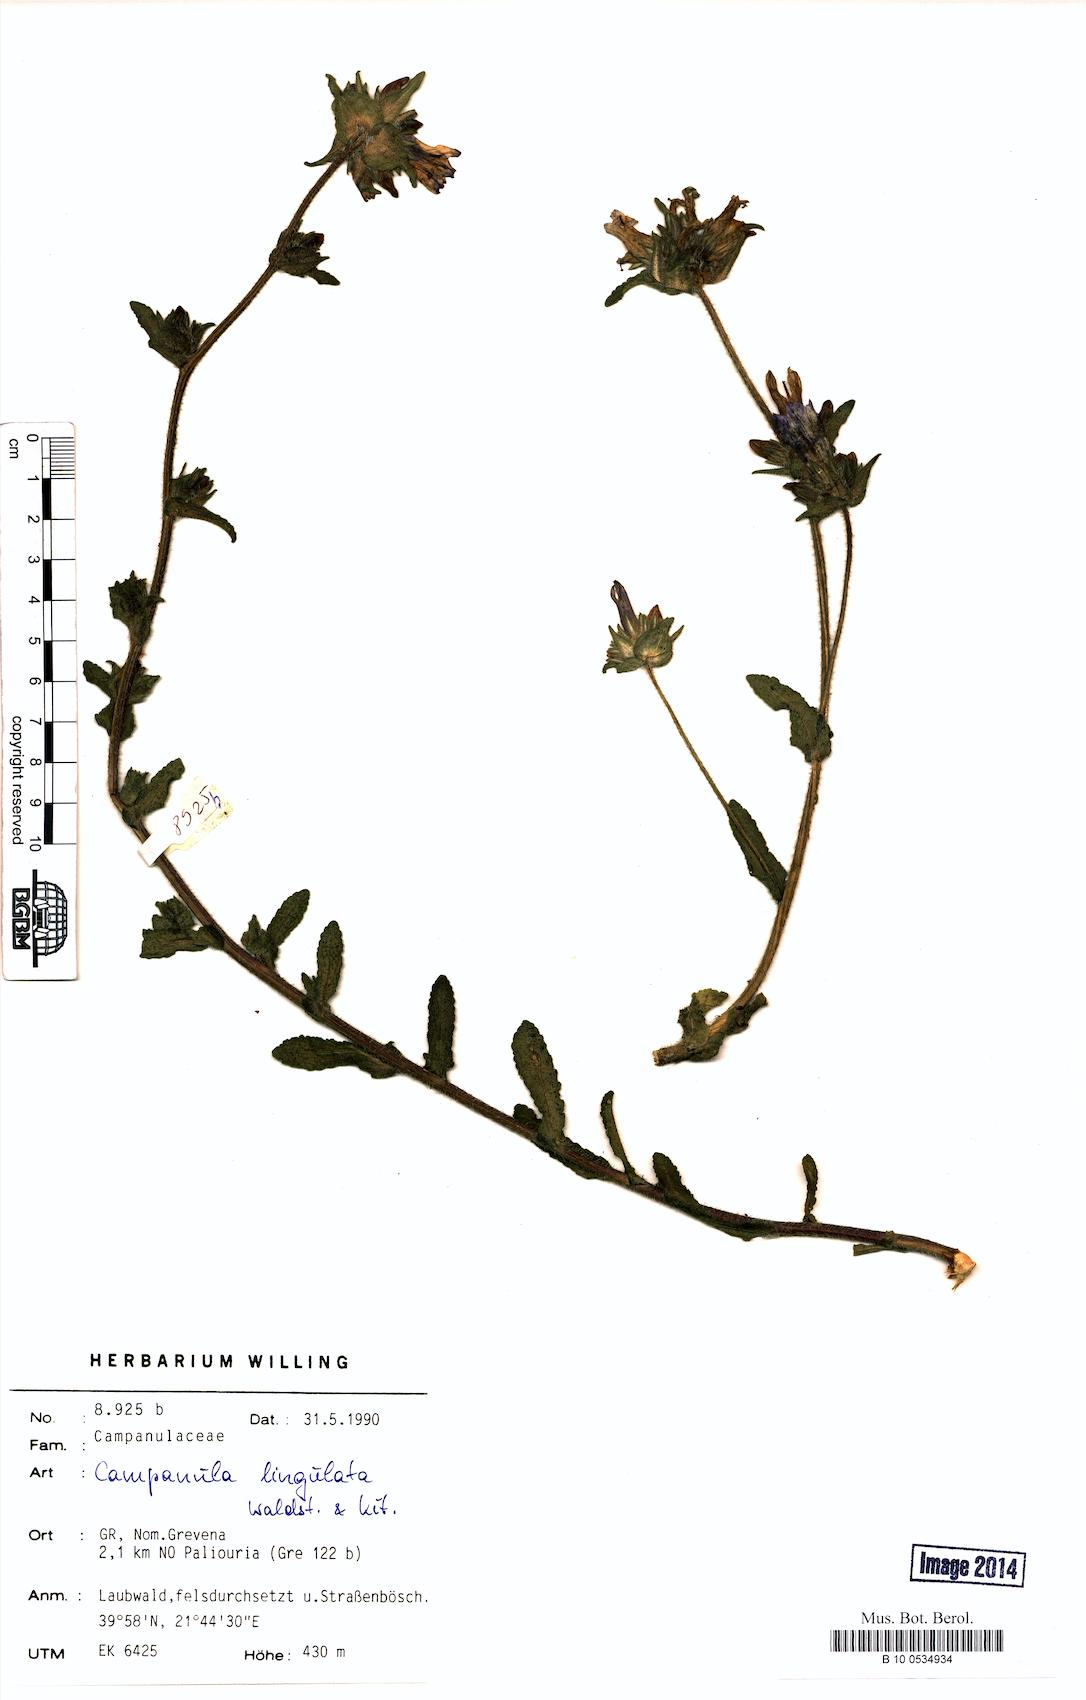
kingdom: Plantae
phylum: Tracheophyta
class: Magnoliopsida
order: Asterales
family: Campanulaceae
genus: Campanula
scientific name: Campanula lingulata
